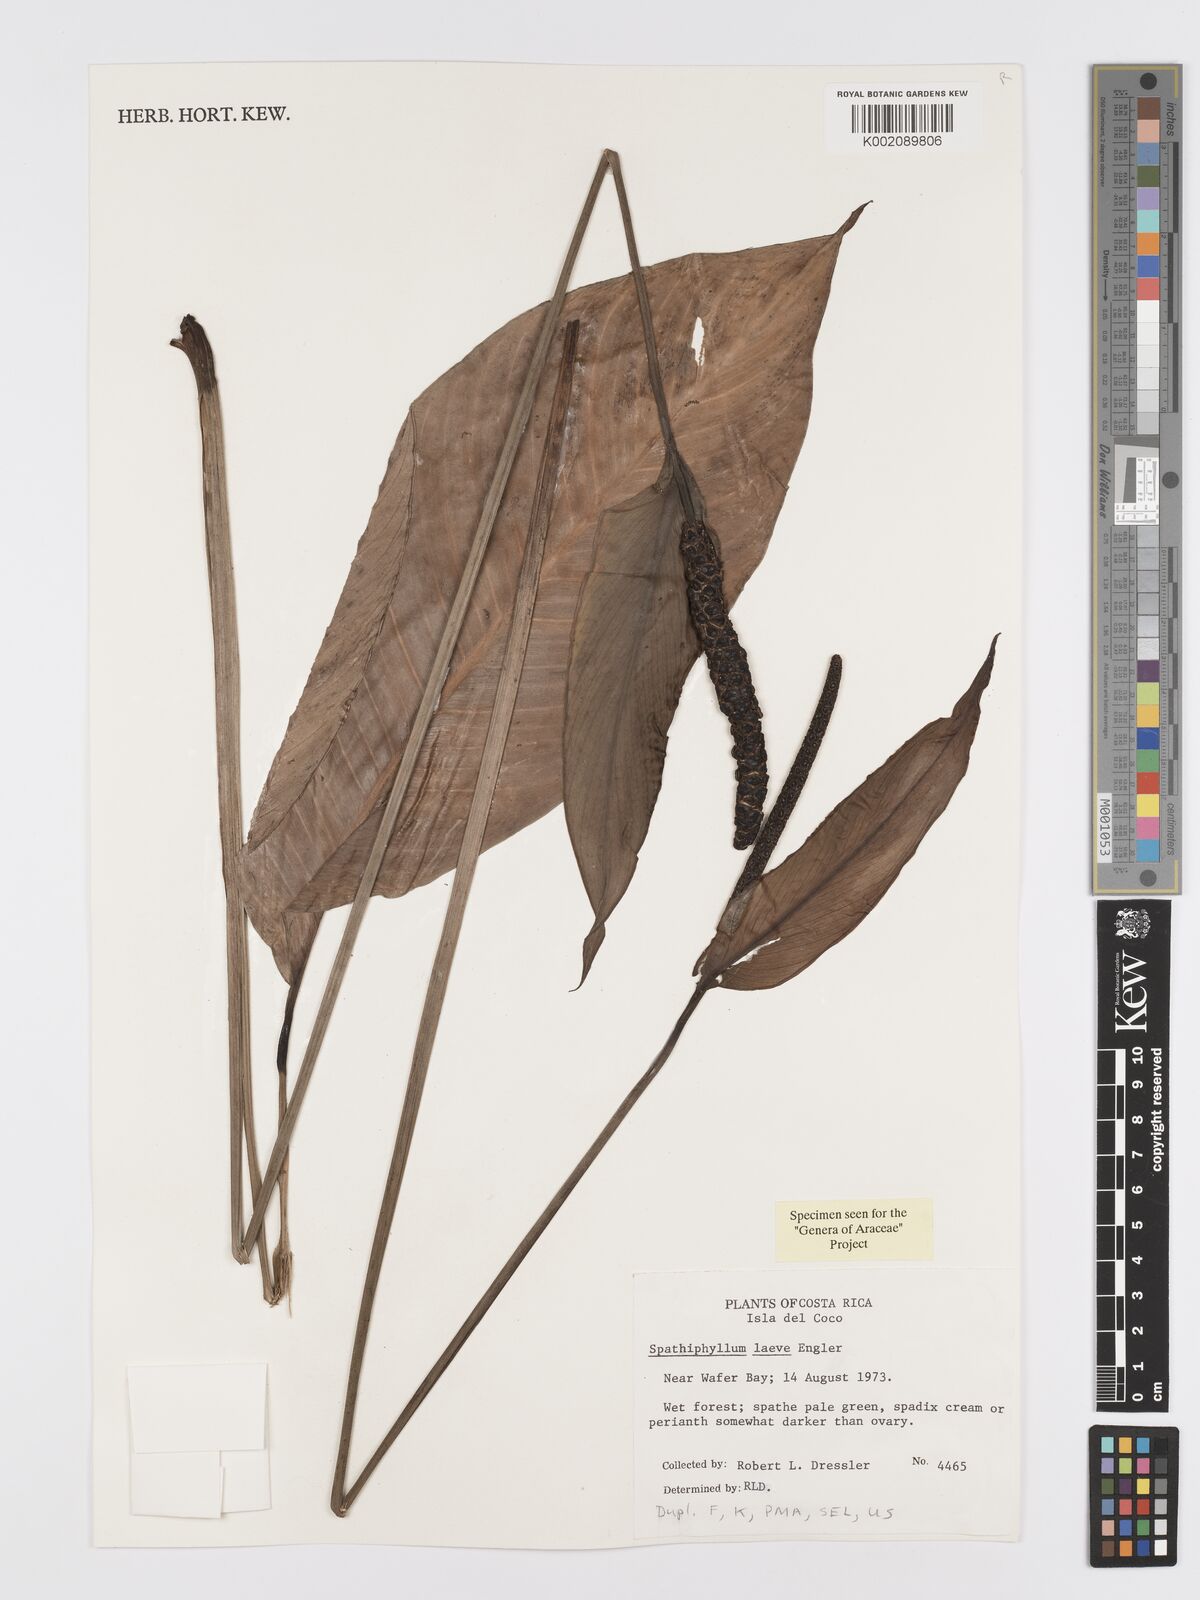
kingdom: Plantae
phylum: Tracheophyta
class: Liliopsida
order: Alismatales
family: Araceae
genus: Spathiphyllum
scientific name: Spathiphyllum laeve
